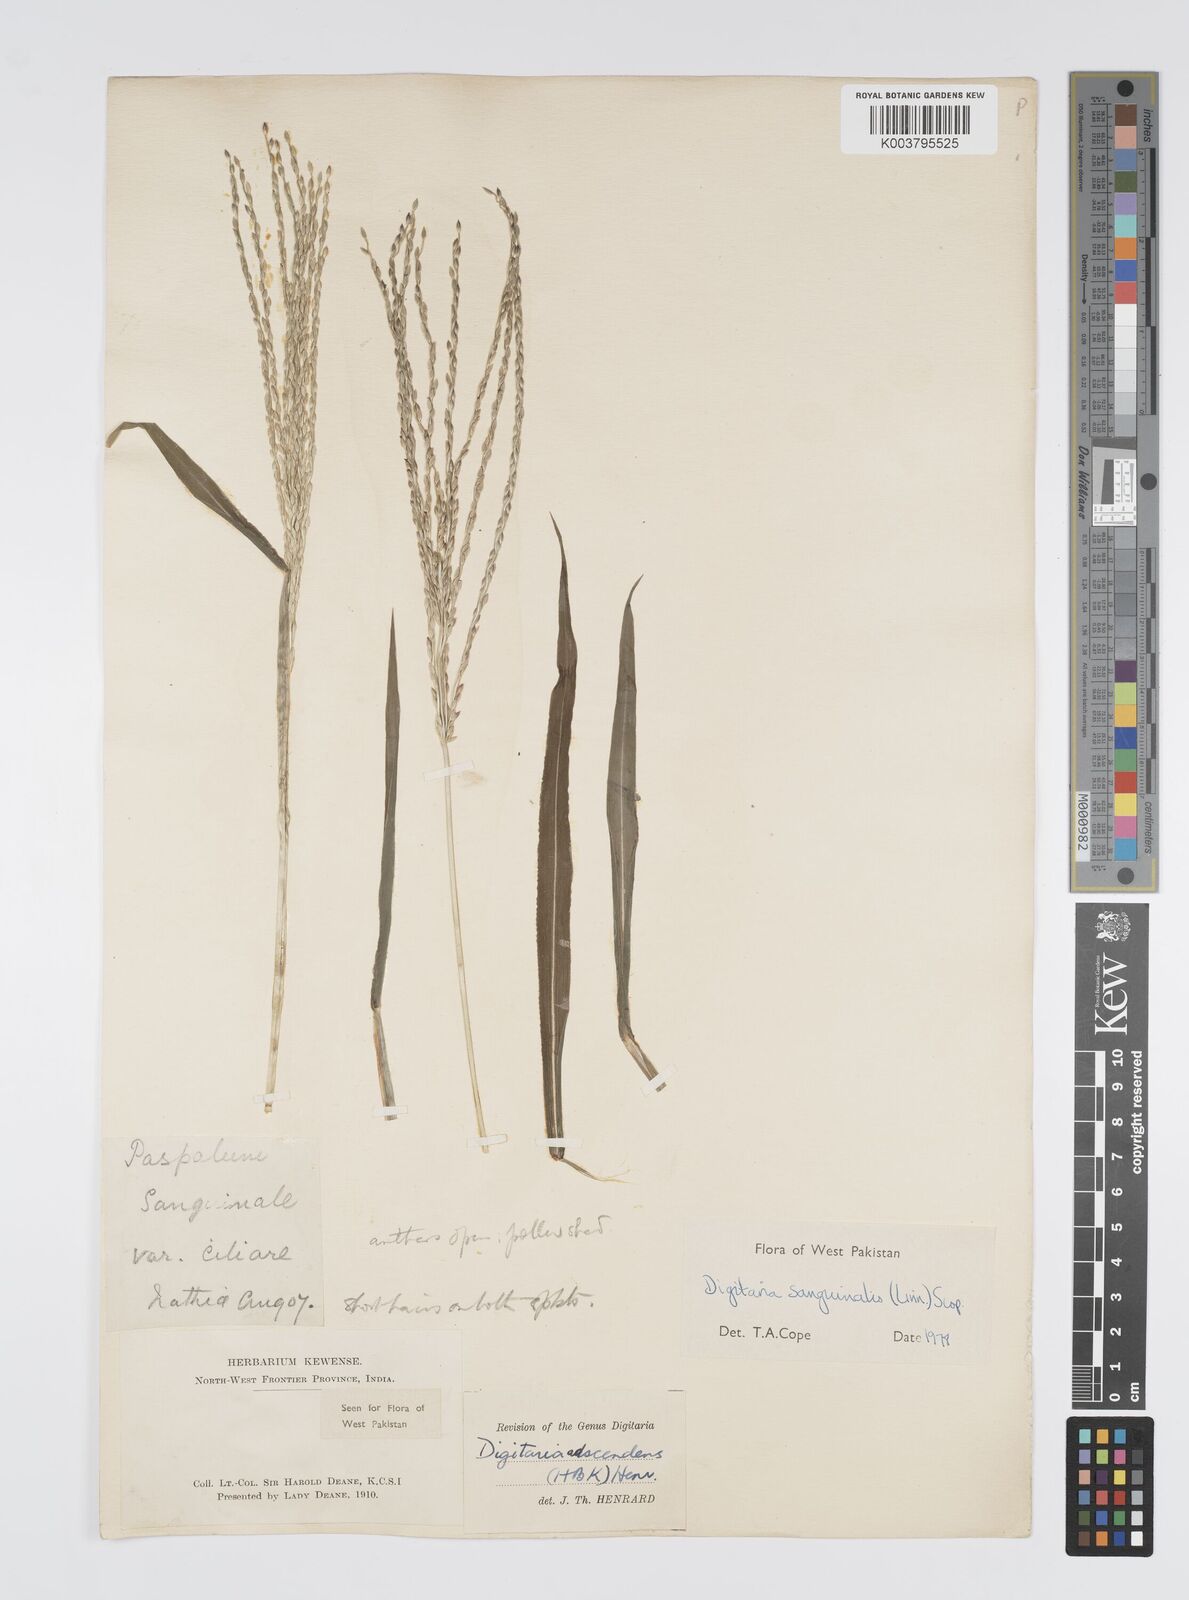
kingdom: Plantae
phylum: Tracheophyta
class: Liliopsida
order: Poales
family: Poaceae
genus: Digitaria
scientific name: Digitaria sanguinalis
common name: Hairy crabgrass
